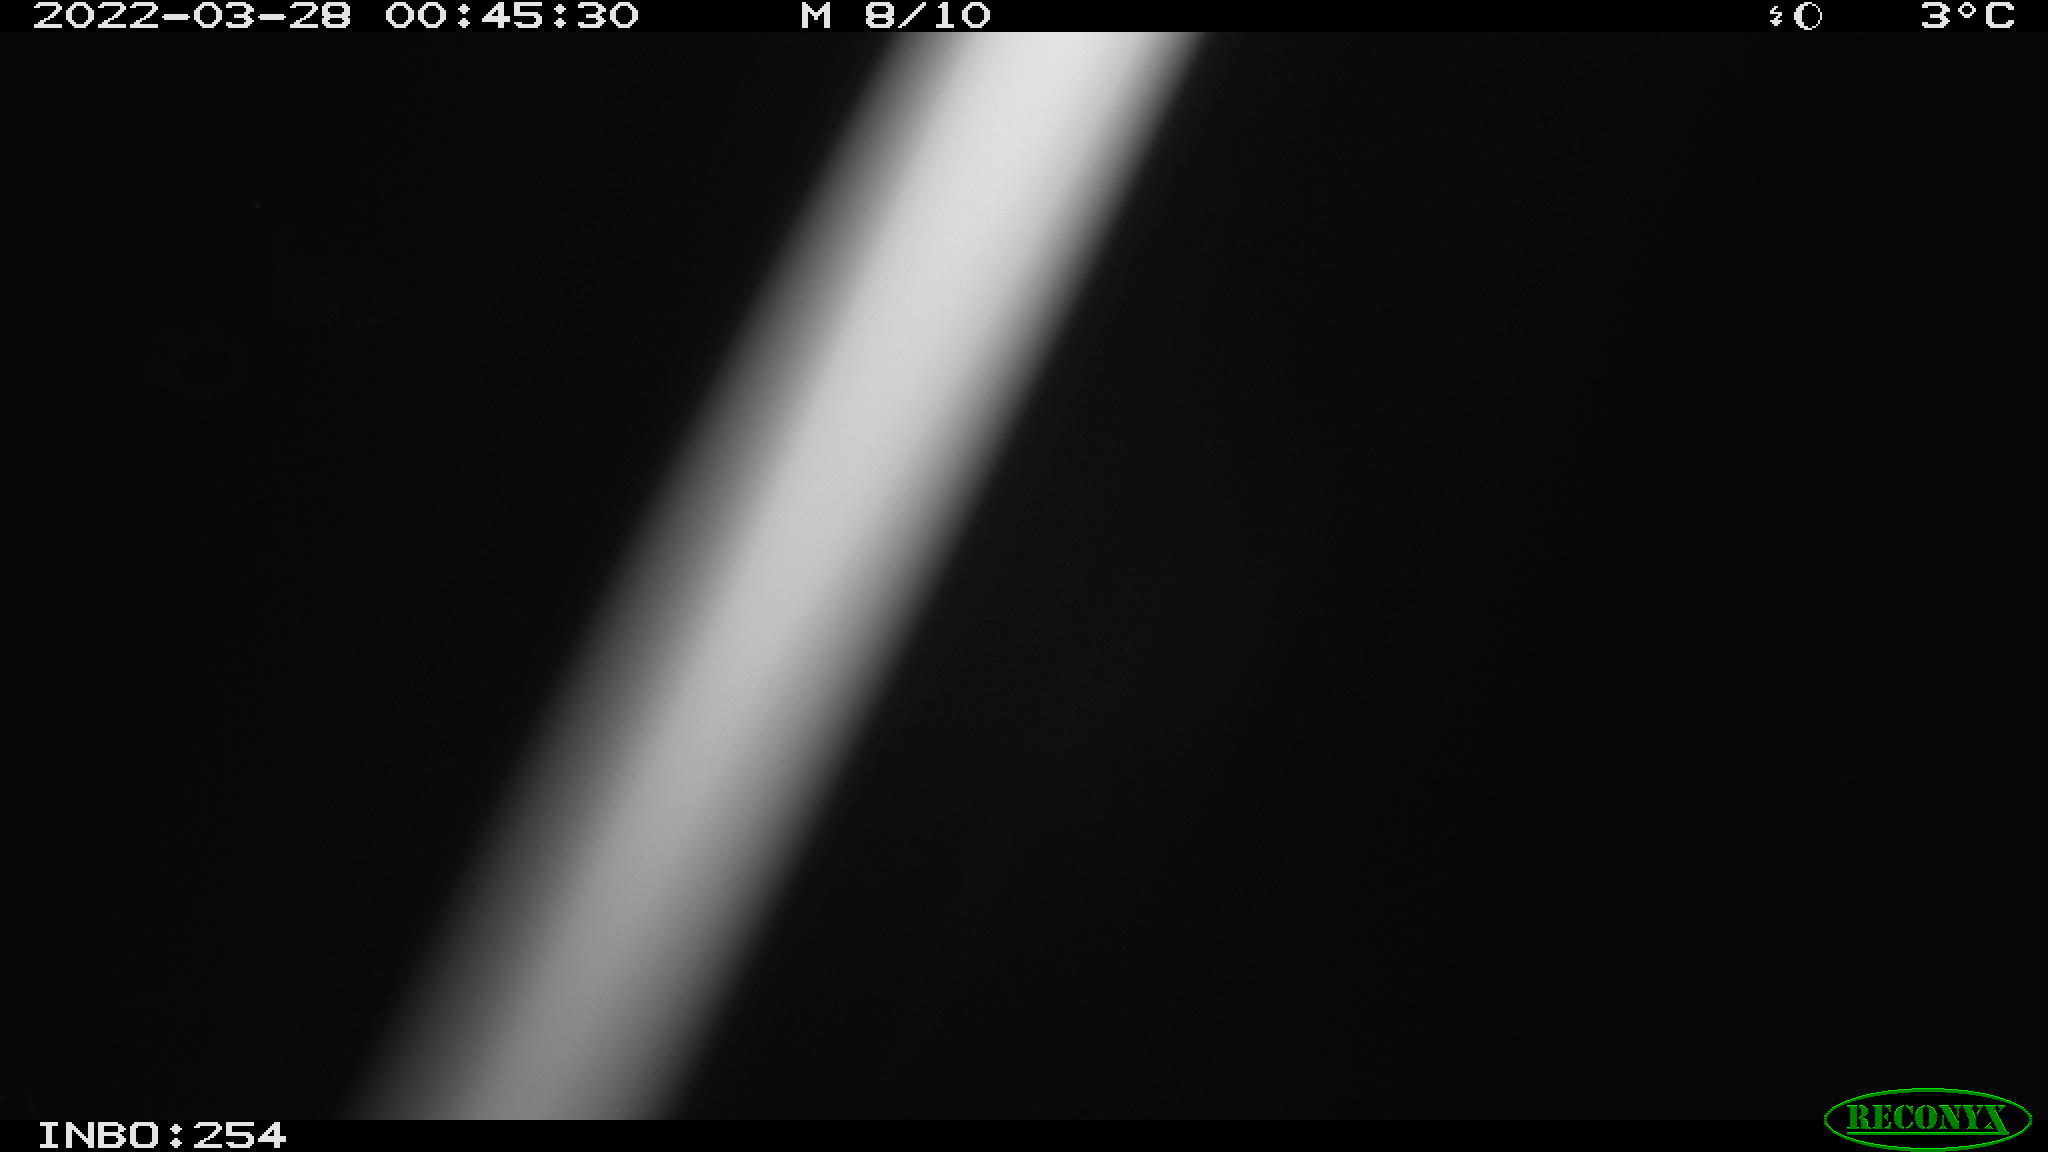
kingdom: Animalia
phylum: Chordata
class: Aves
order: Anseriformes
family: Anatidae
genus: Anas
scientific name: Anas platyrhynchos
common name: Mallard
